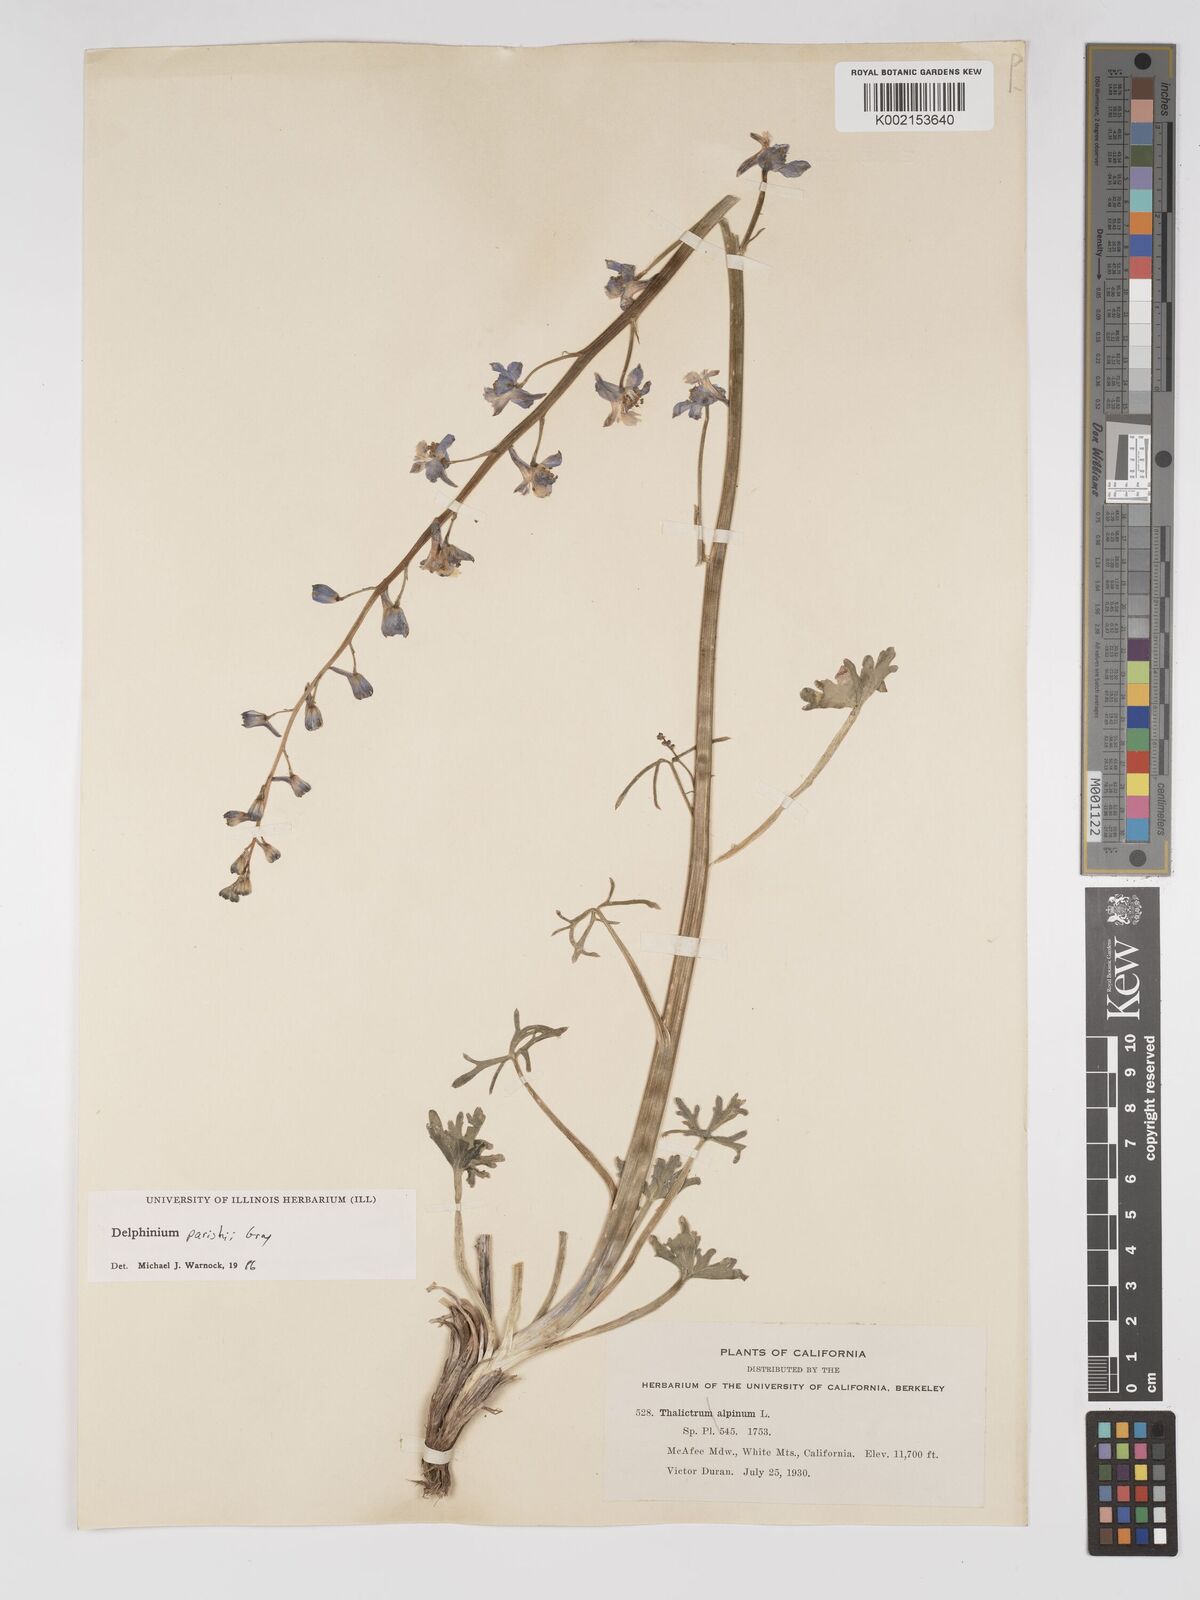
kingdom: Plantae
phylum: Tracheophyta
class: Magnoliopsida
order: Ranunculales
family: Ranunculaceae
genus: Delphinium
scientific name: Delphinium parishii
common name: Apache larkspur
